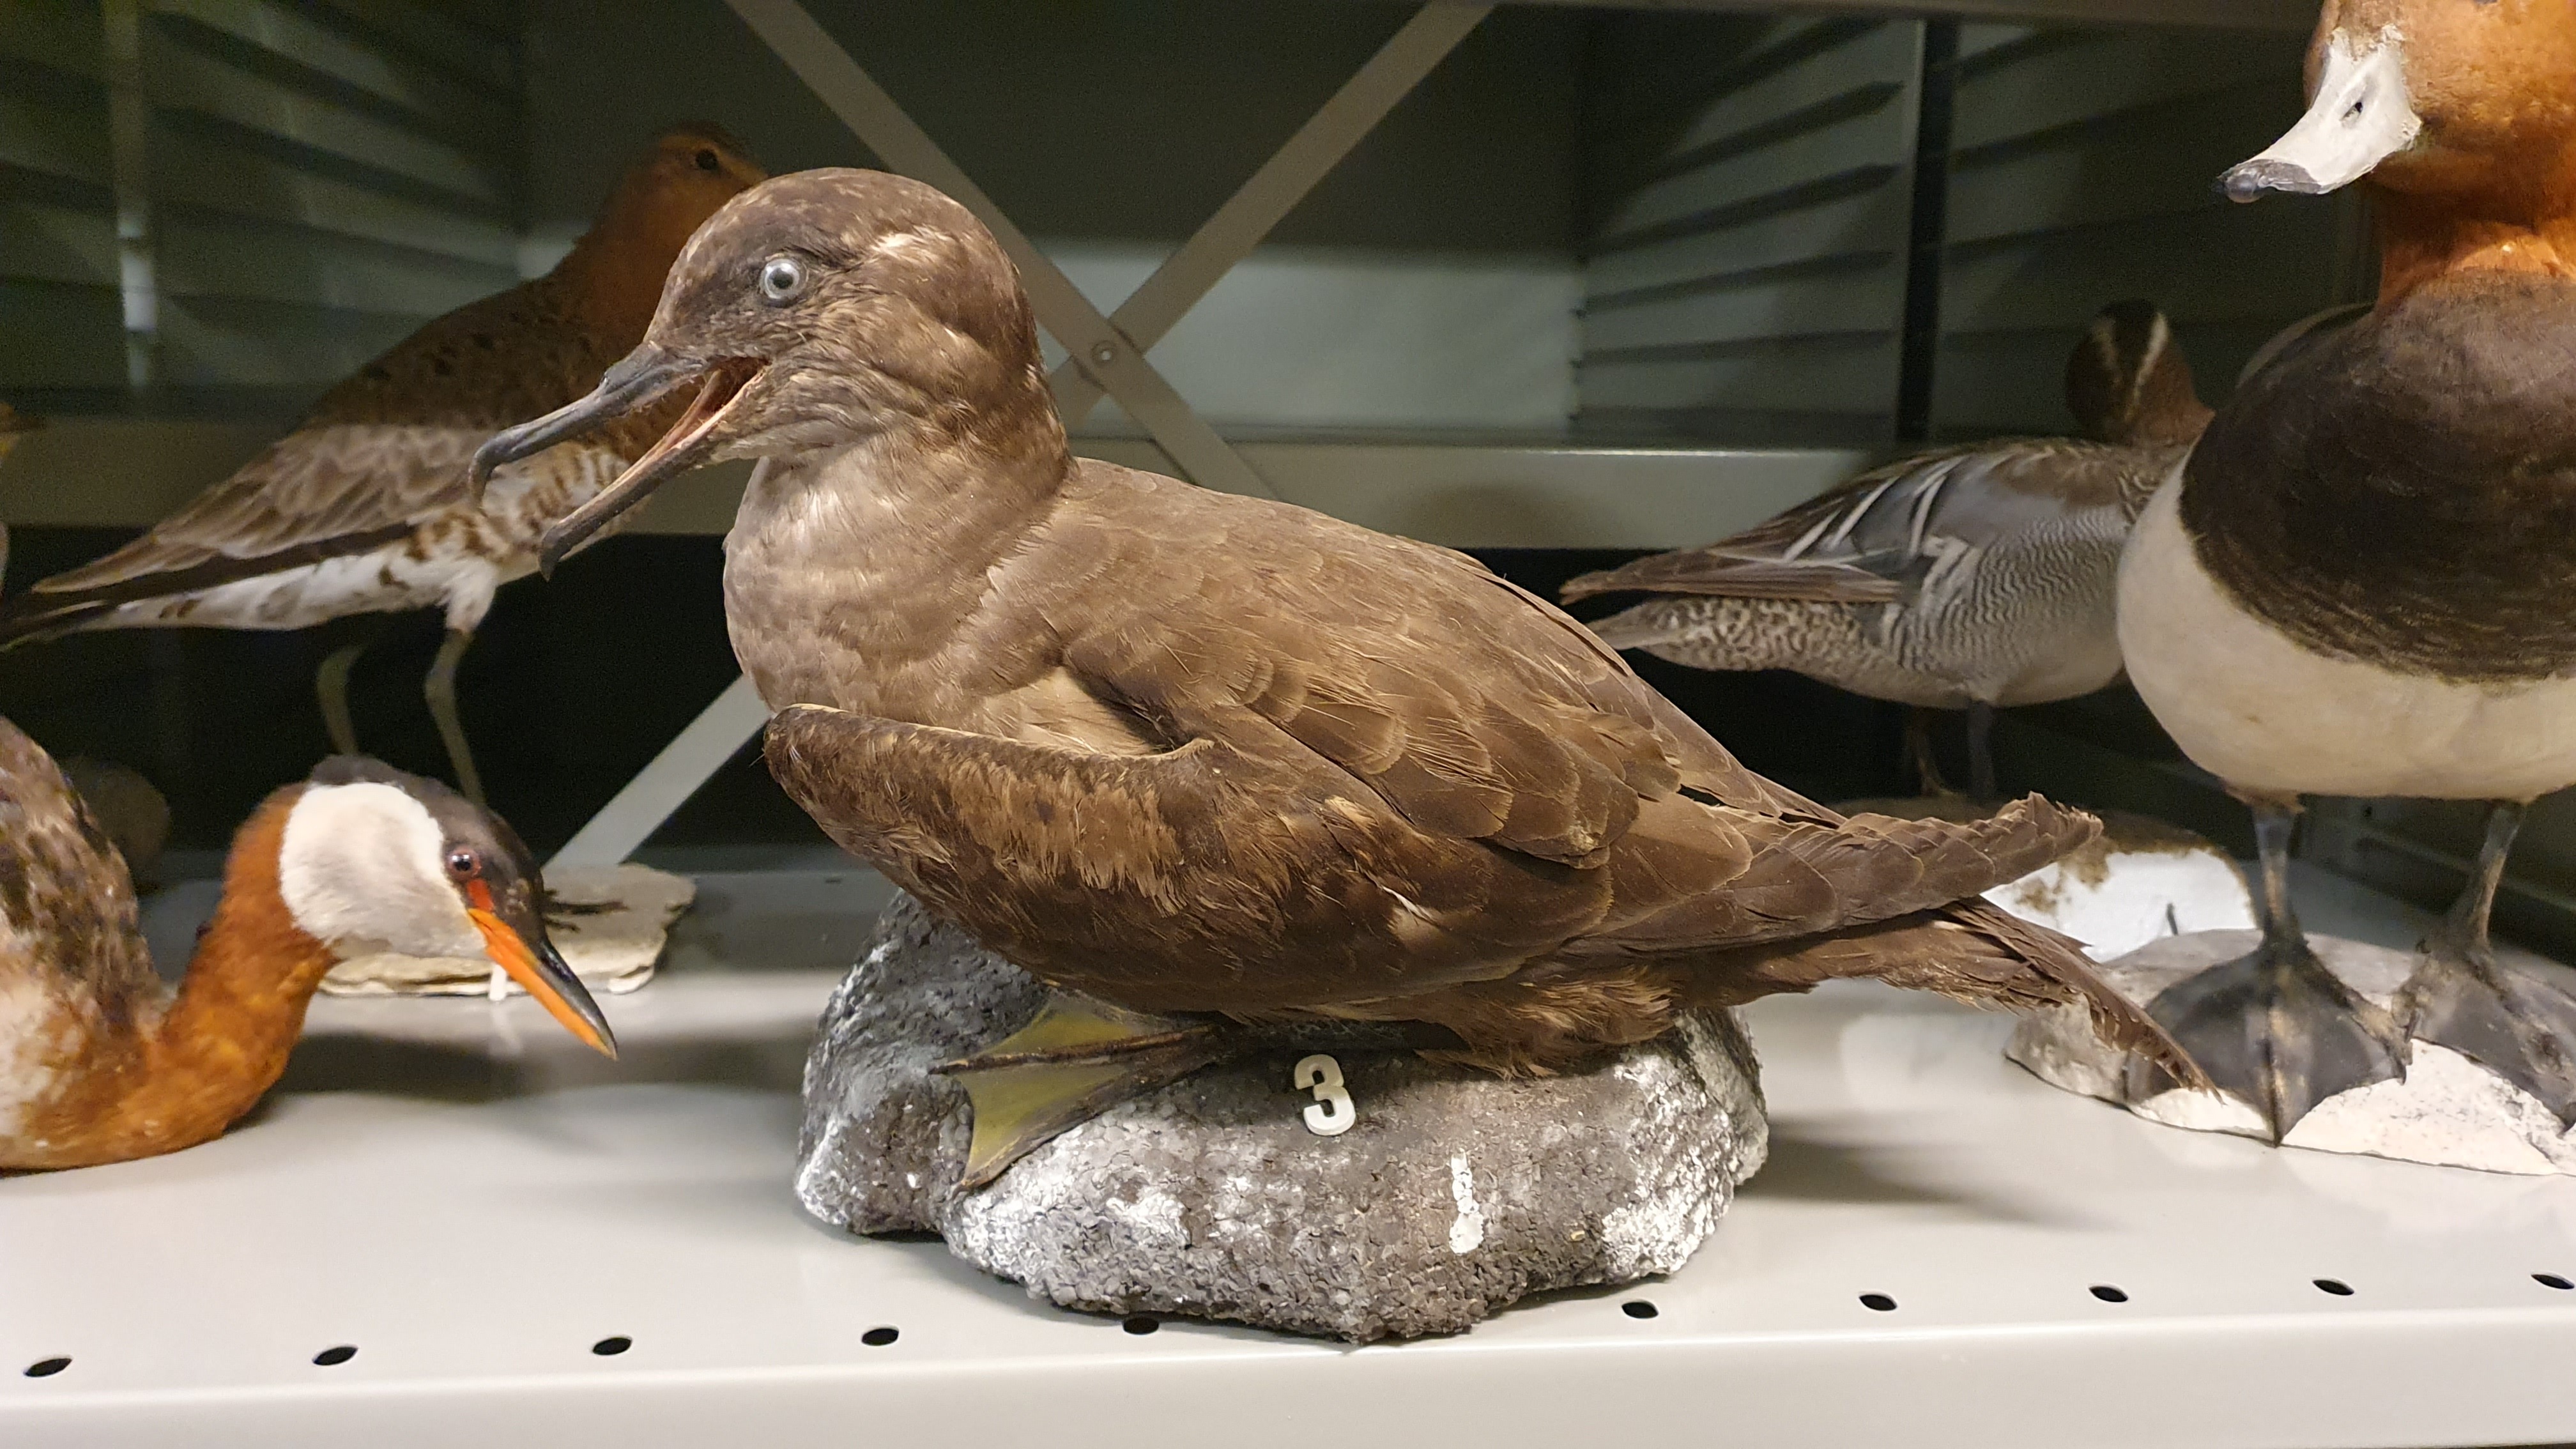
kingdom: Animalia
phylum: Chordata
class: Aves
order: Procellariiformes
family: Procellariidae
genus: Puffinus
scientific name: Puffinus griseus
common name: Sooty shearwater
